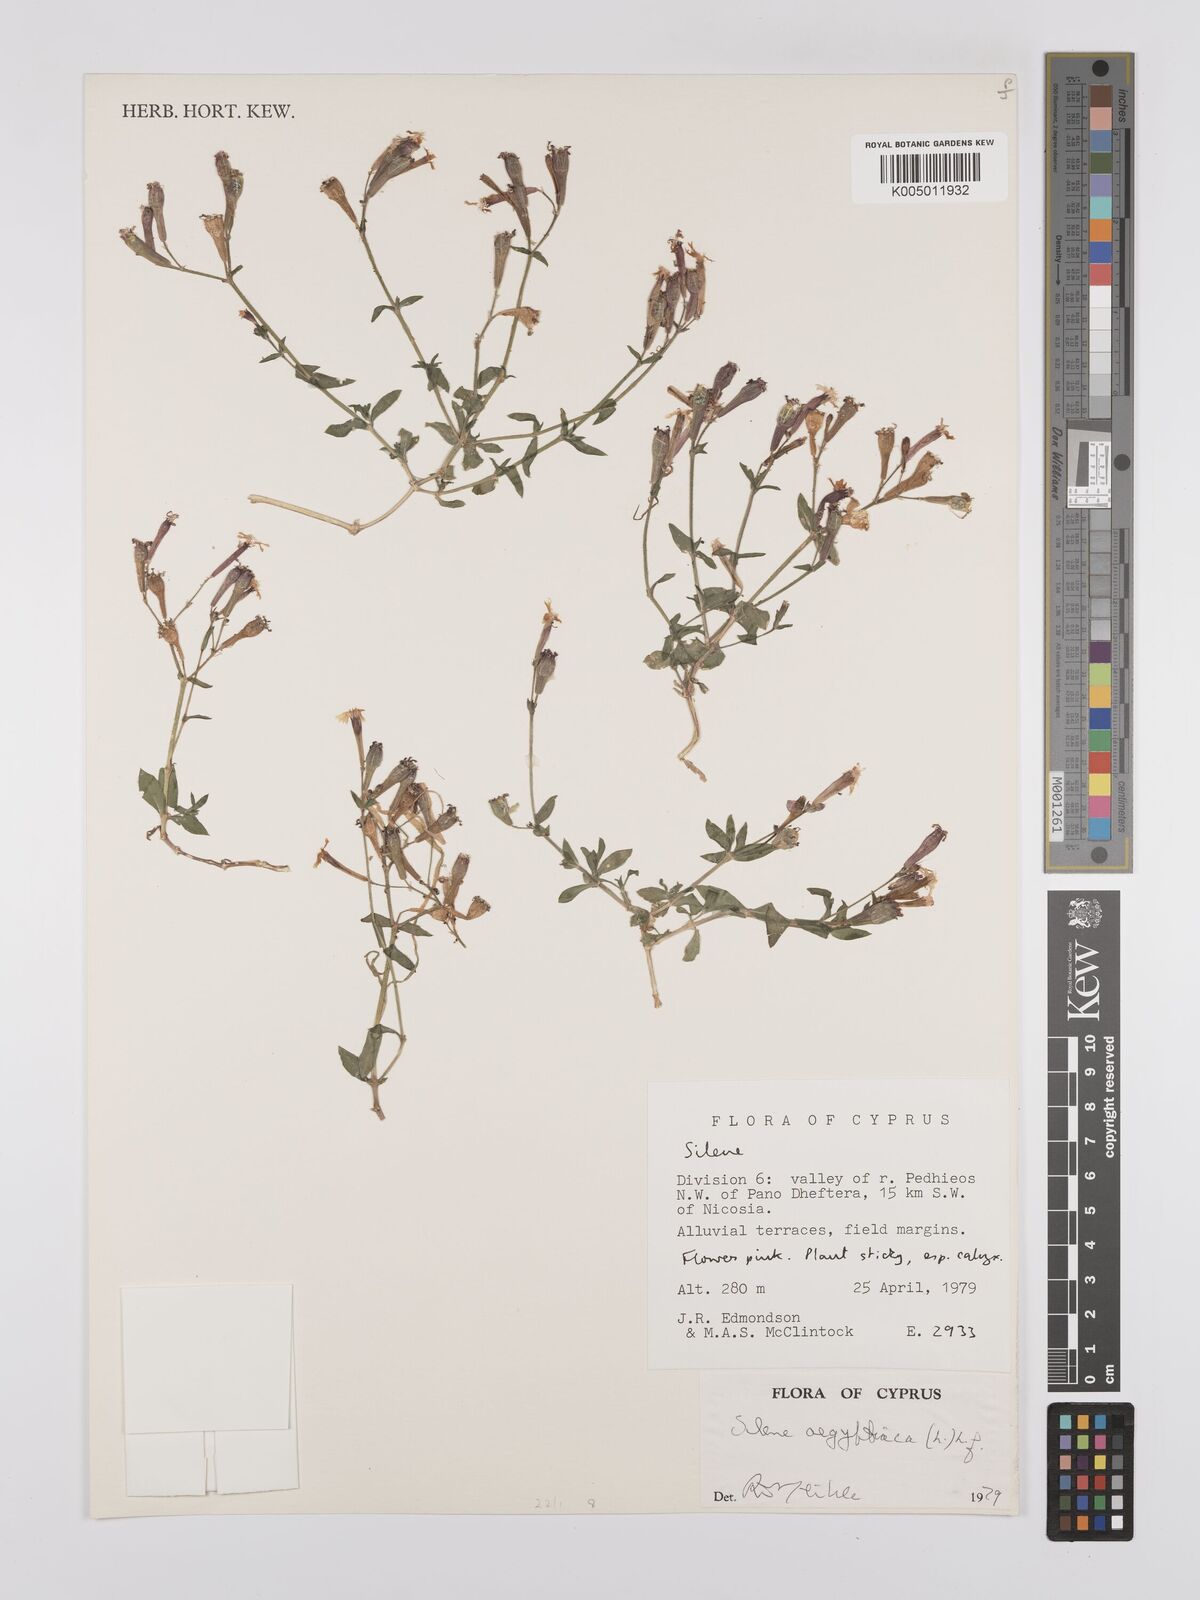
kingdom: Plantae
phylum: Tracheophyta
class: Magnoliopsida
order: Caryophyllales
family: Caryophyllaceae
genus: Silene
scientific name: Silene aegyptiaca
